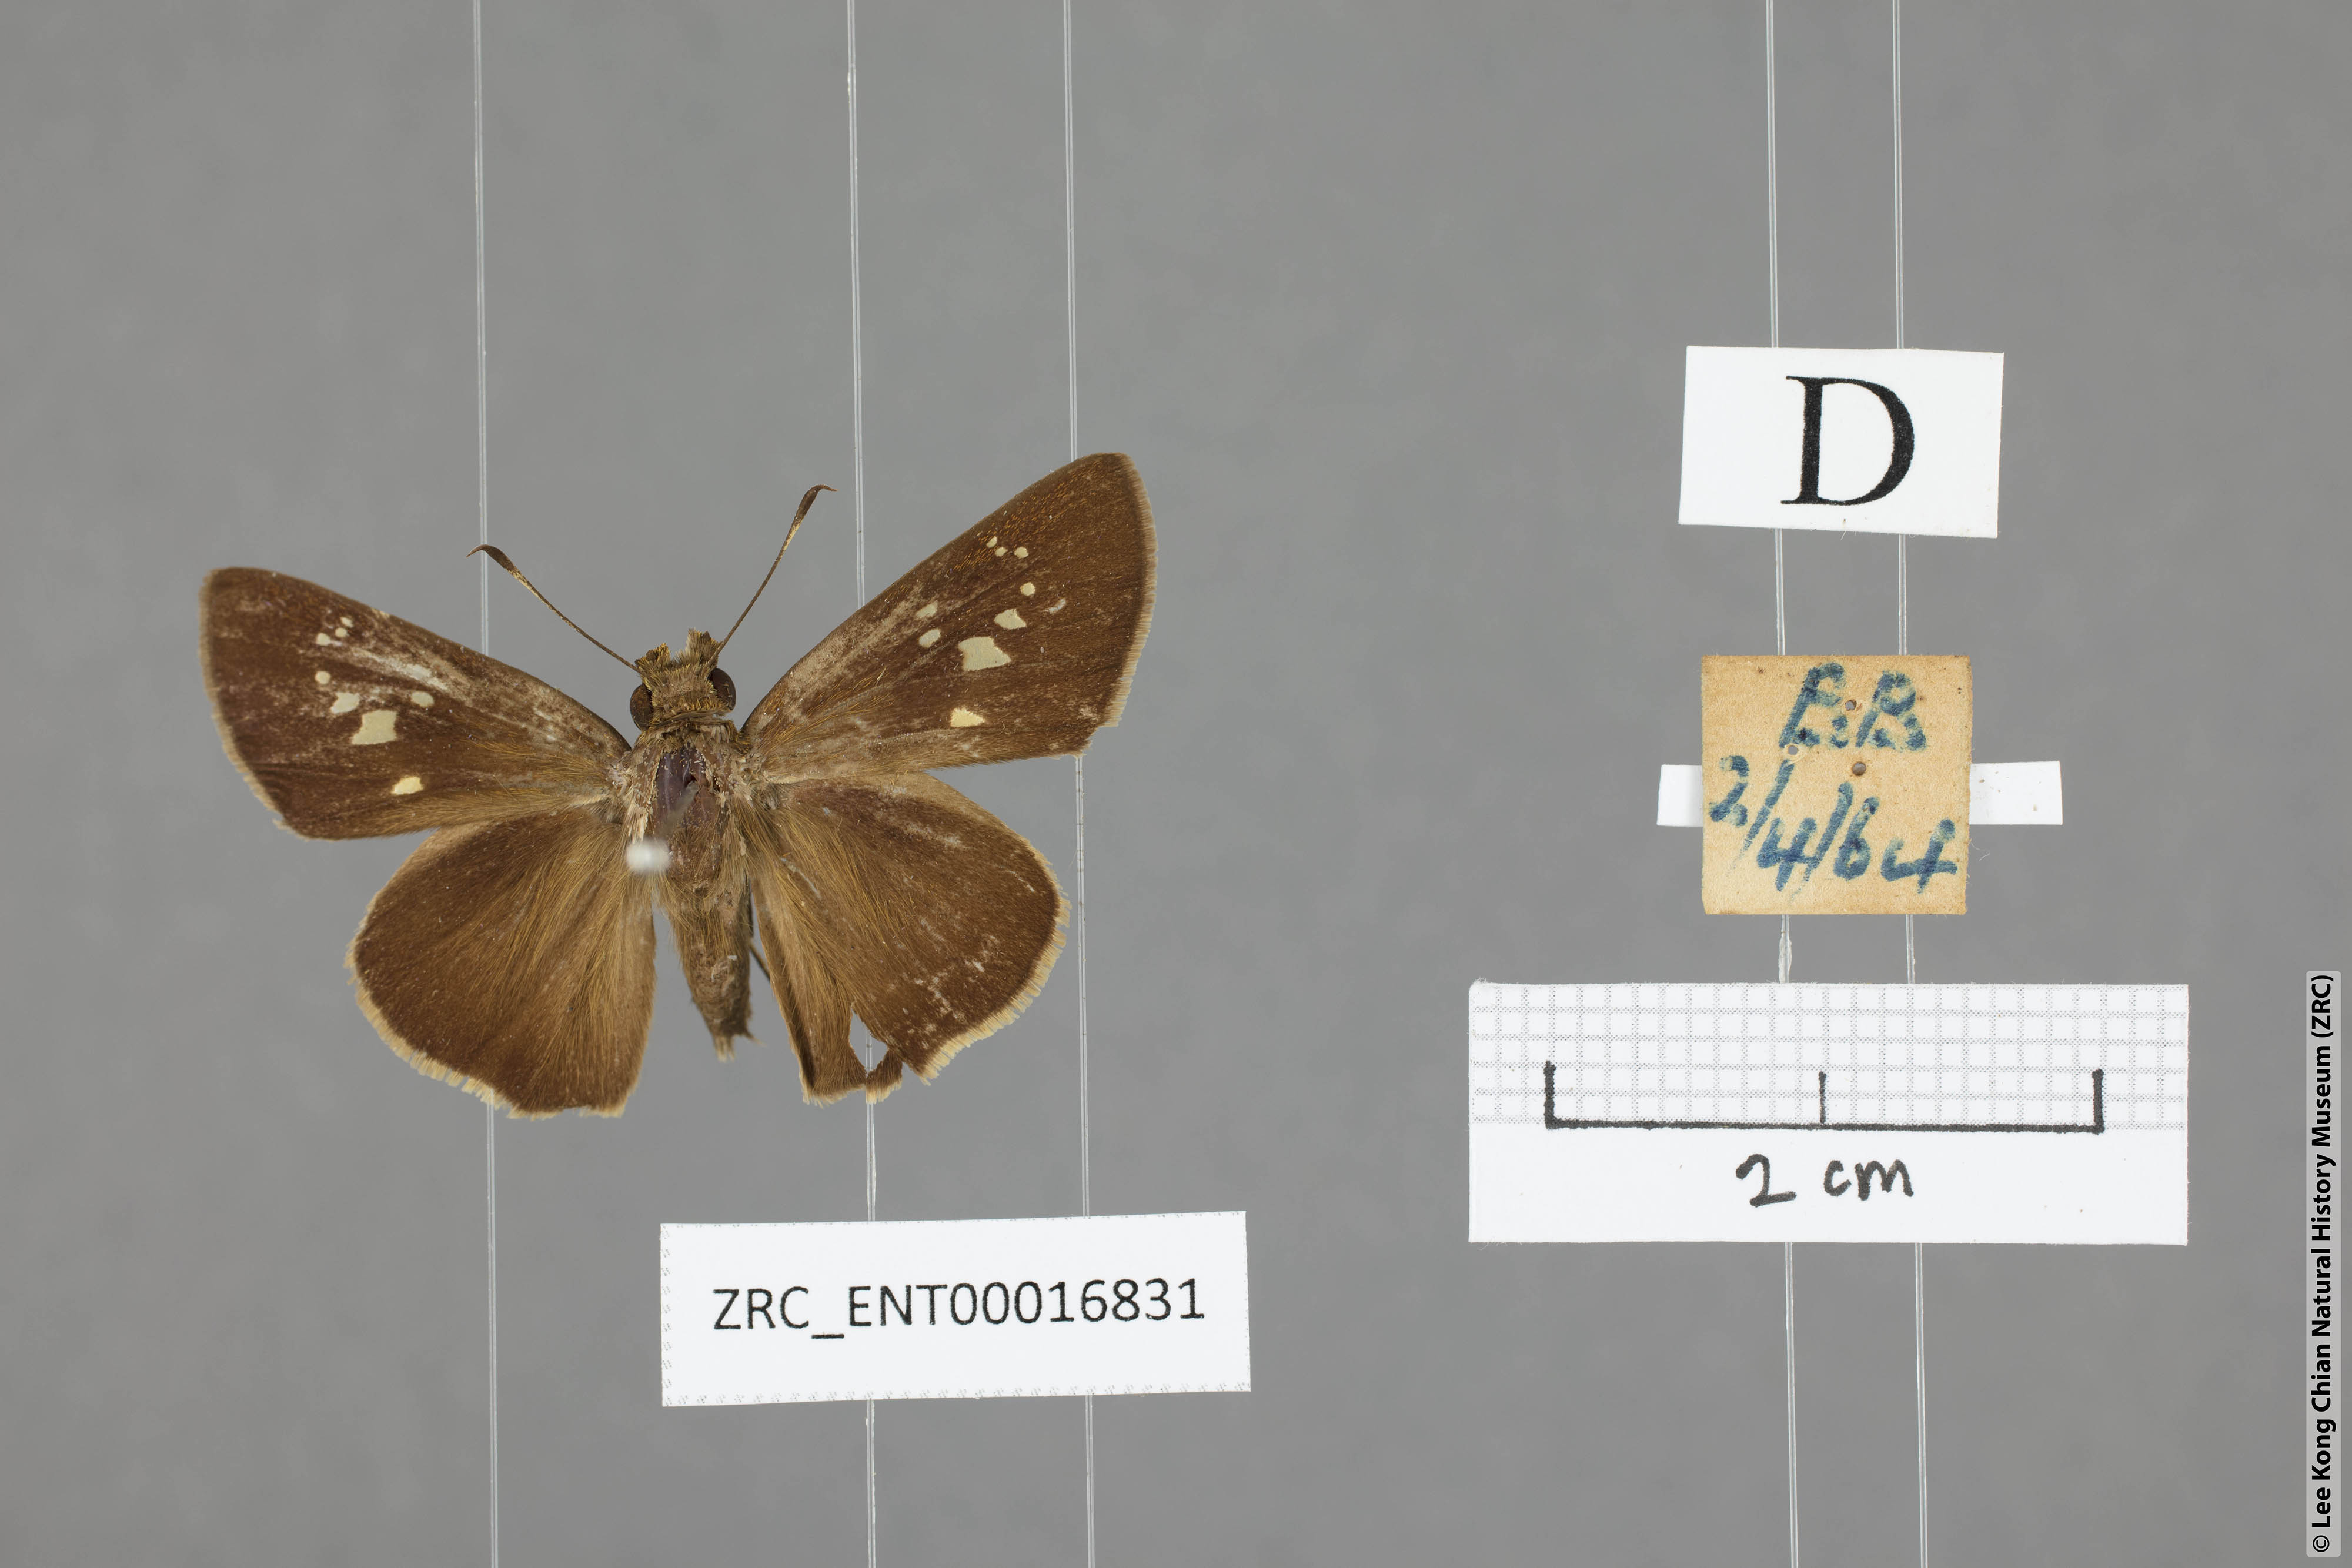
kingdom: Animalia
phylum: Arthropoda
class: Insecta
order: Lepidoptera
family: Hesperiidae
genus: Caltoris
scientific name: Caltoris cormasa
